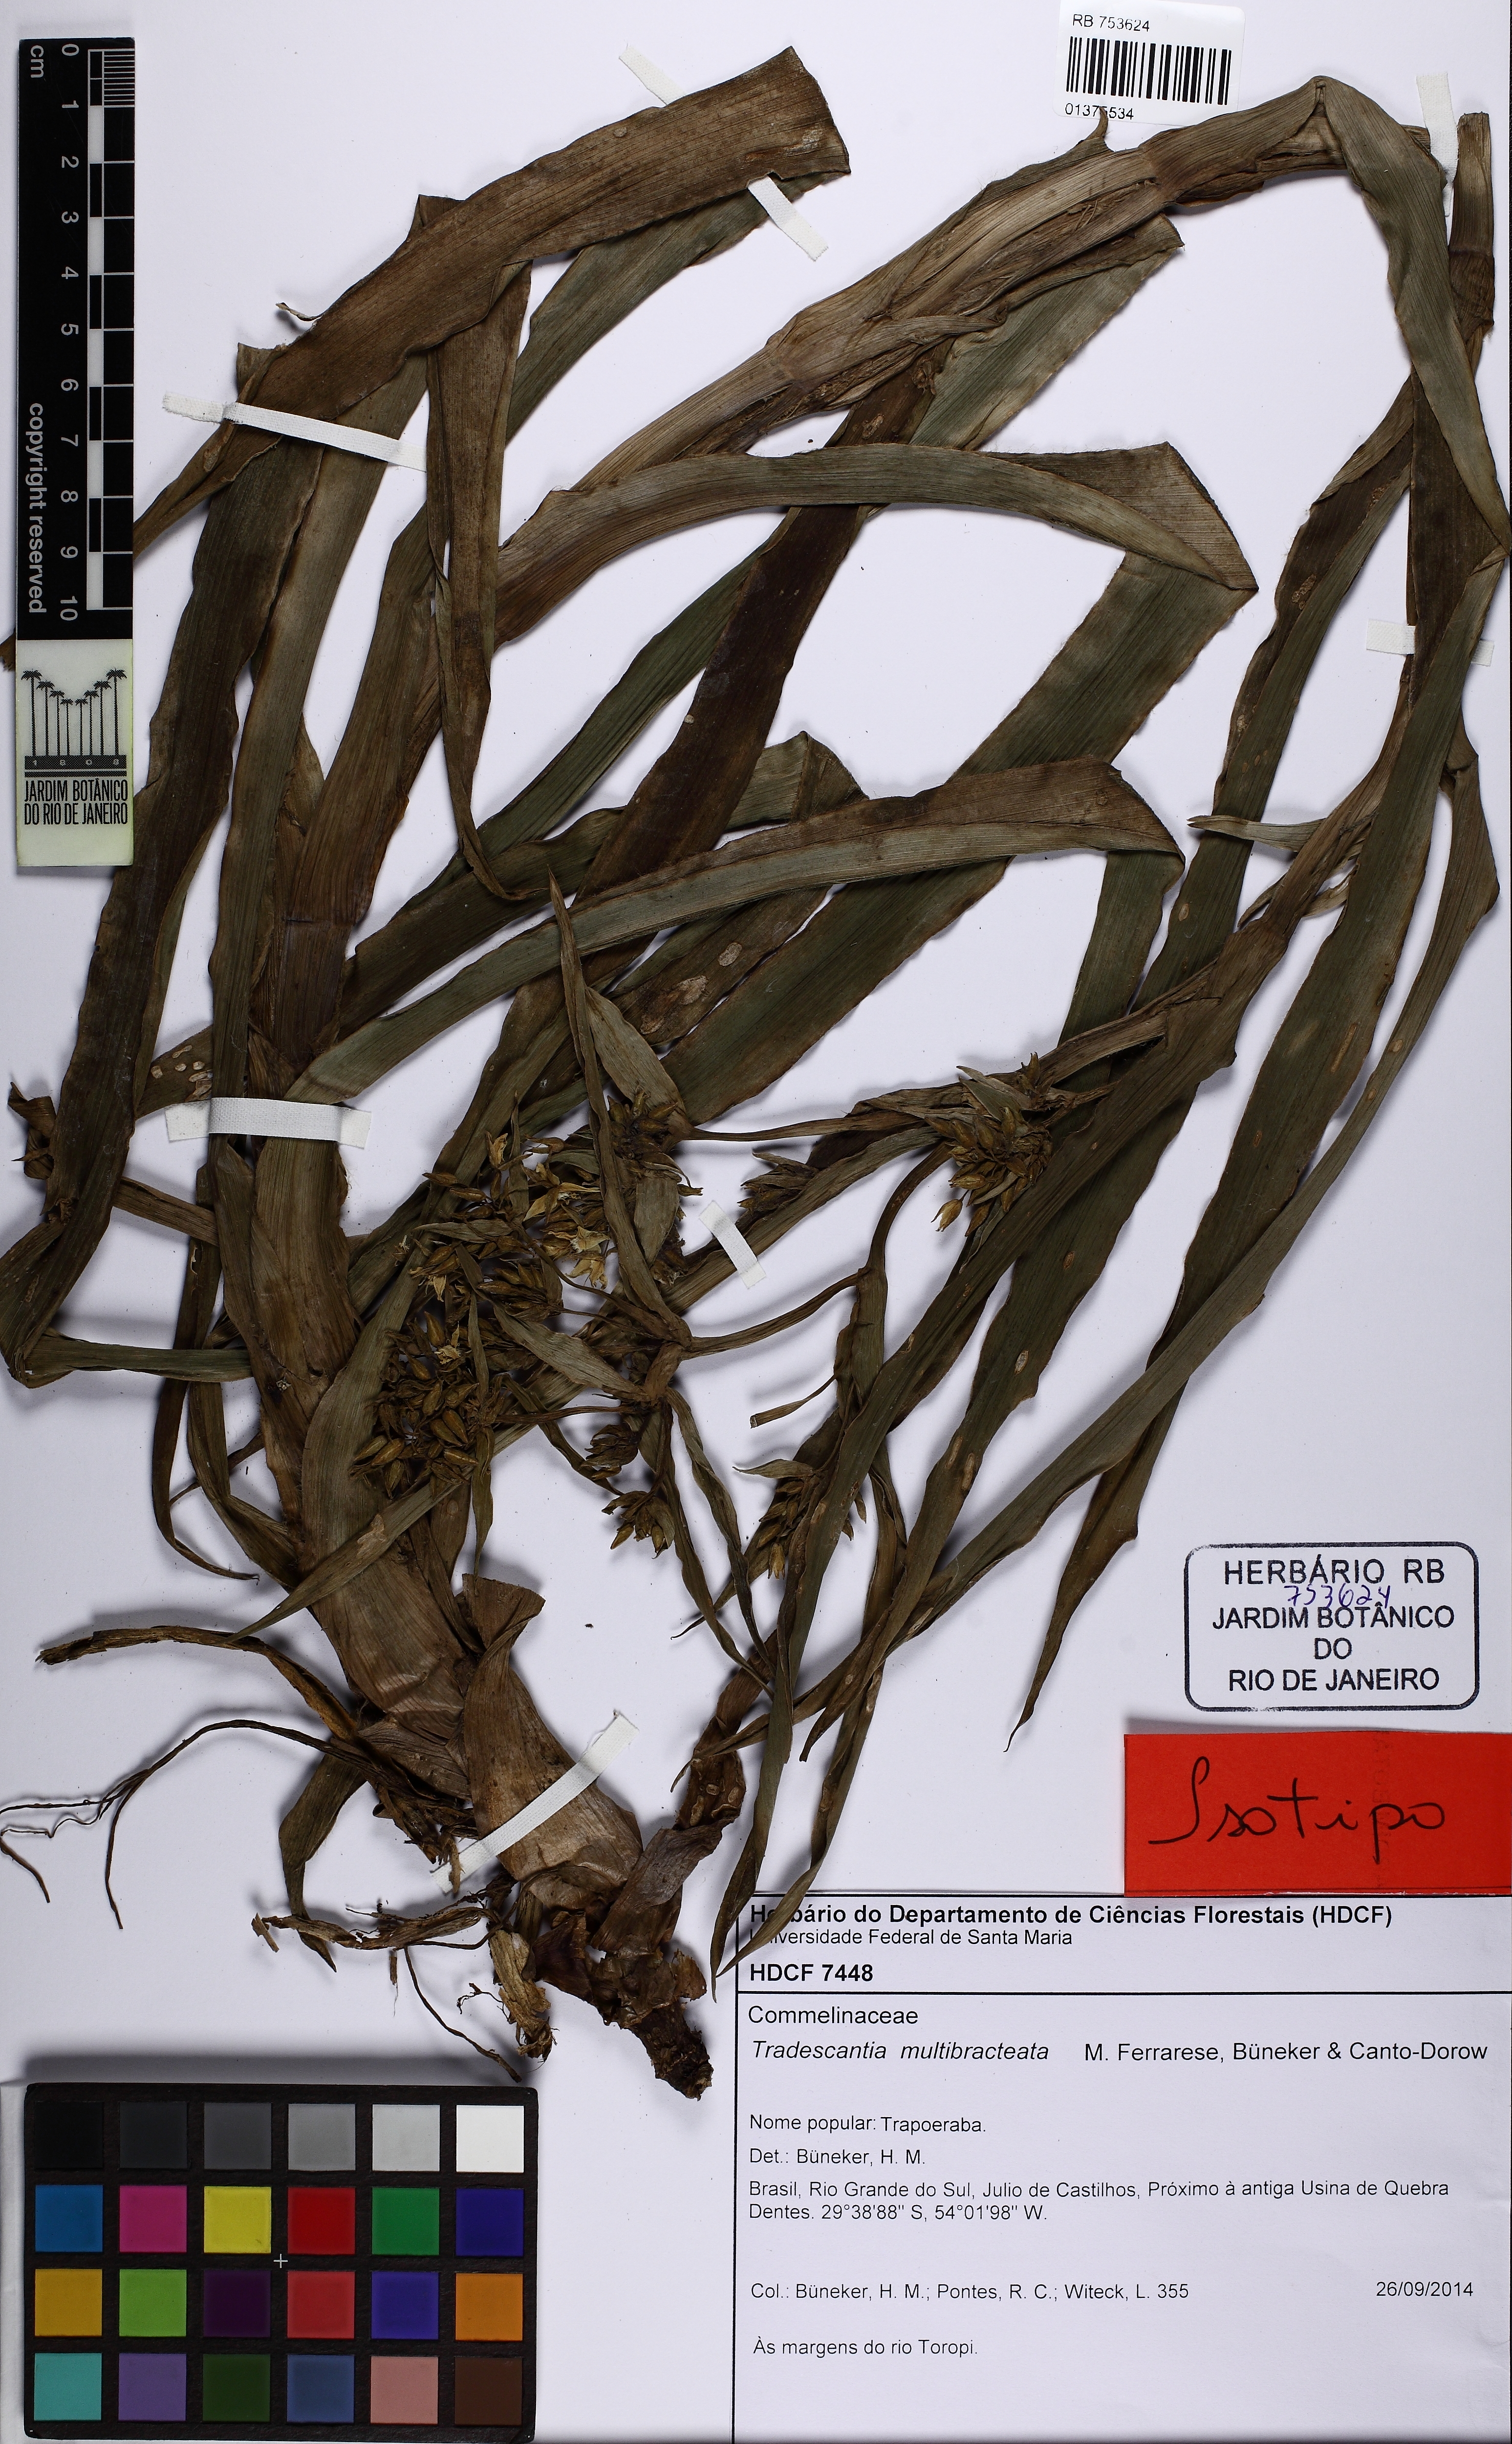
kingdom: Plantae
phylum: Tracheophyta
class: Liliopsida
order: Commelinales
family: Commelinaceae
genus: Tradescantia
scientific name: Tradescantia multibracteata
